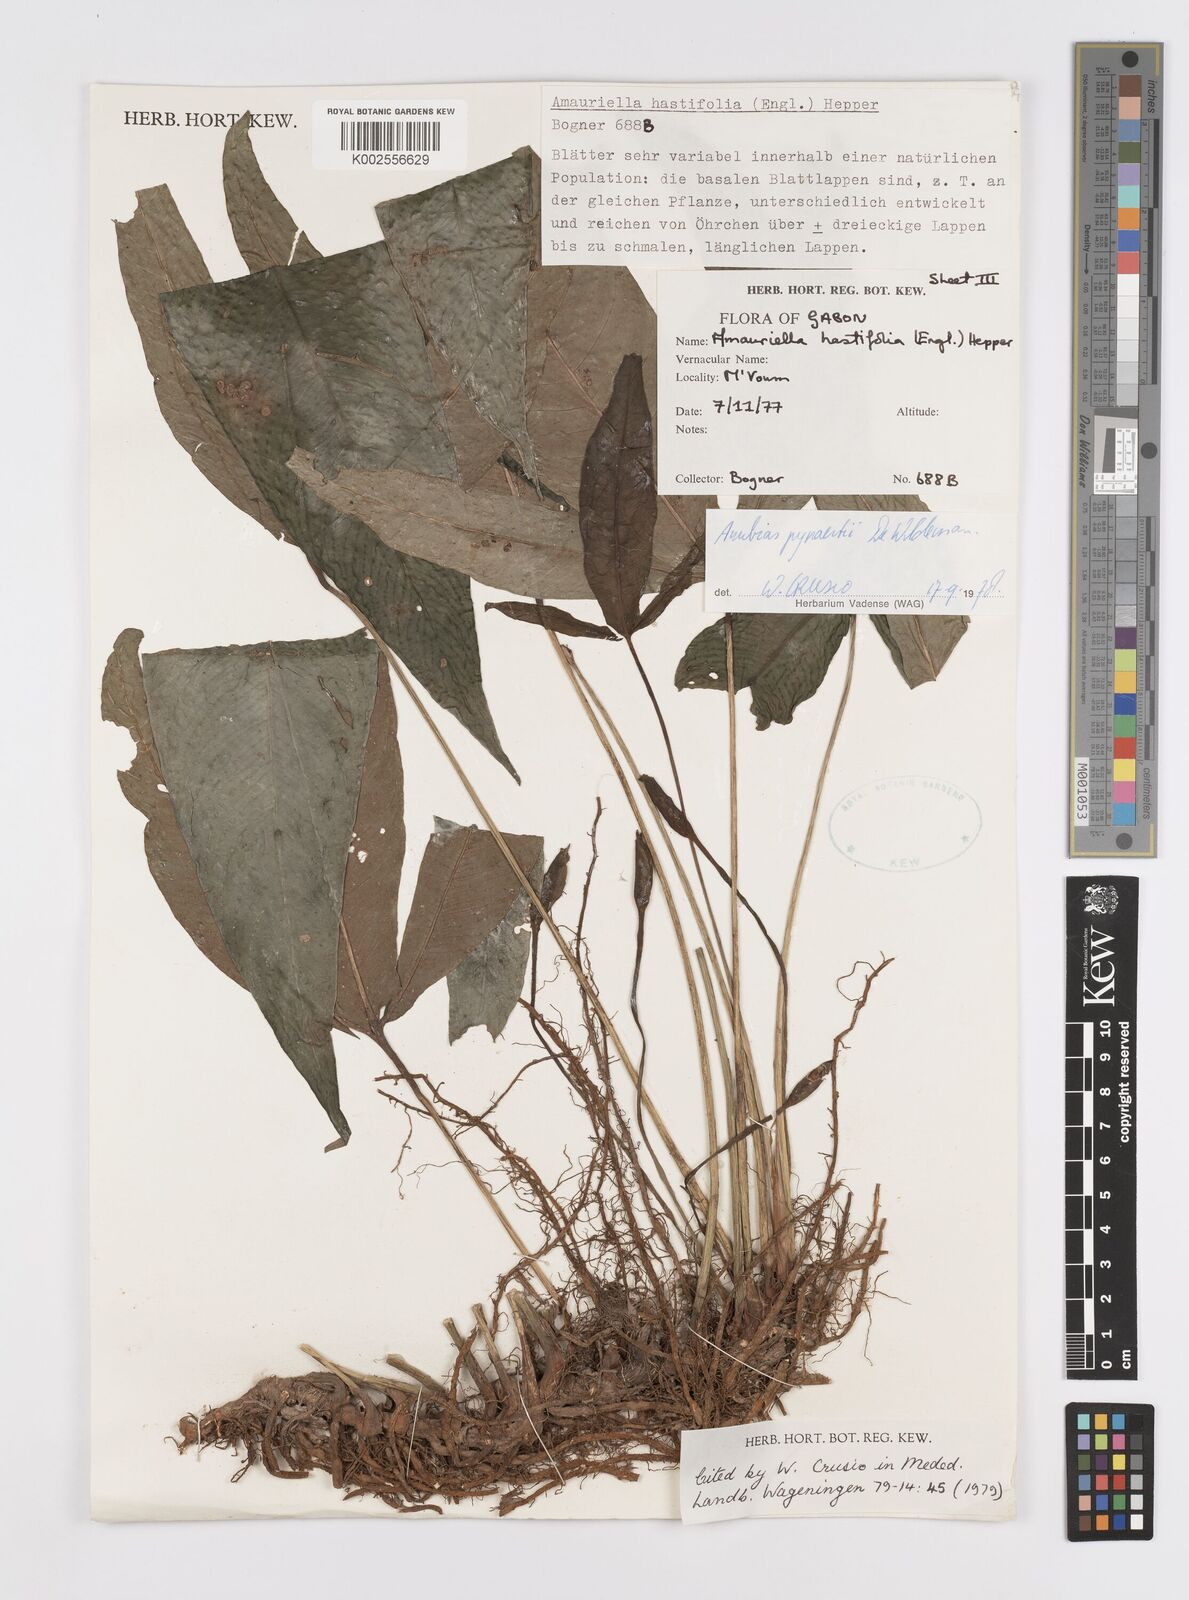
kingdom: Plantae
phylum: Tracheophyta
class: Liliopsida
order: Alismatales
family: Araceae
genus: Anubias
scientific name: Anubias pynaertii
